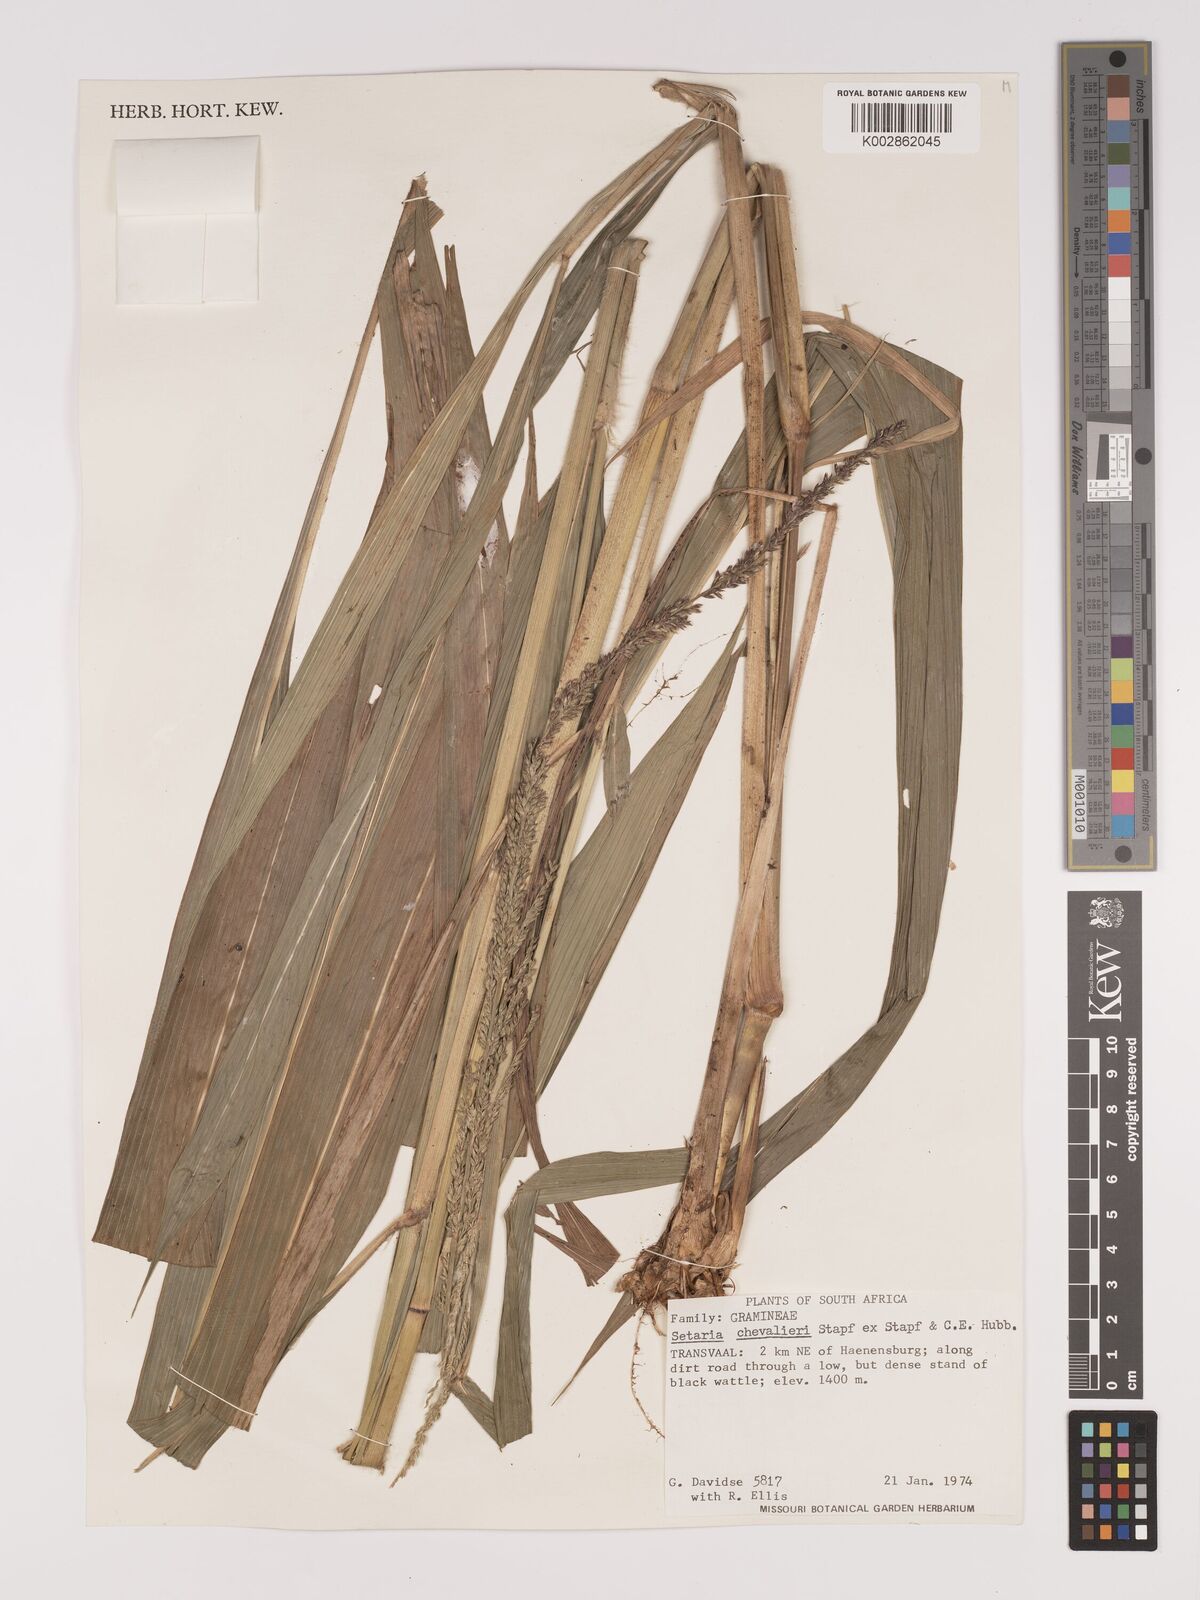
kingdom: Plantae
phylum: Tracheophyta
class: Liliopsida
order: Poales
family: Poaceae
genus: Setaria
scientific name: Setaria megaphylla
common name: Bigleaf bristlegrass
